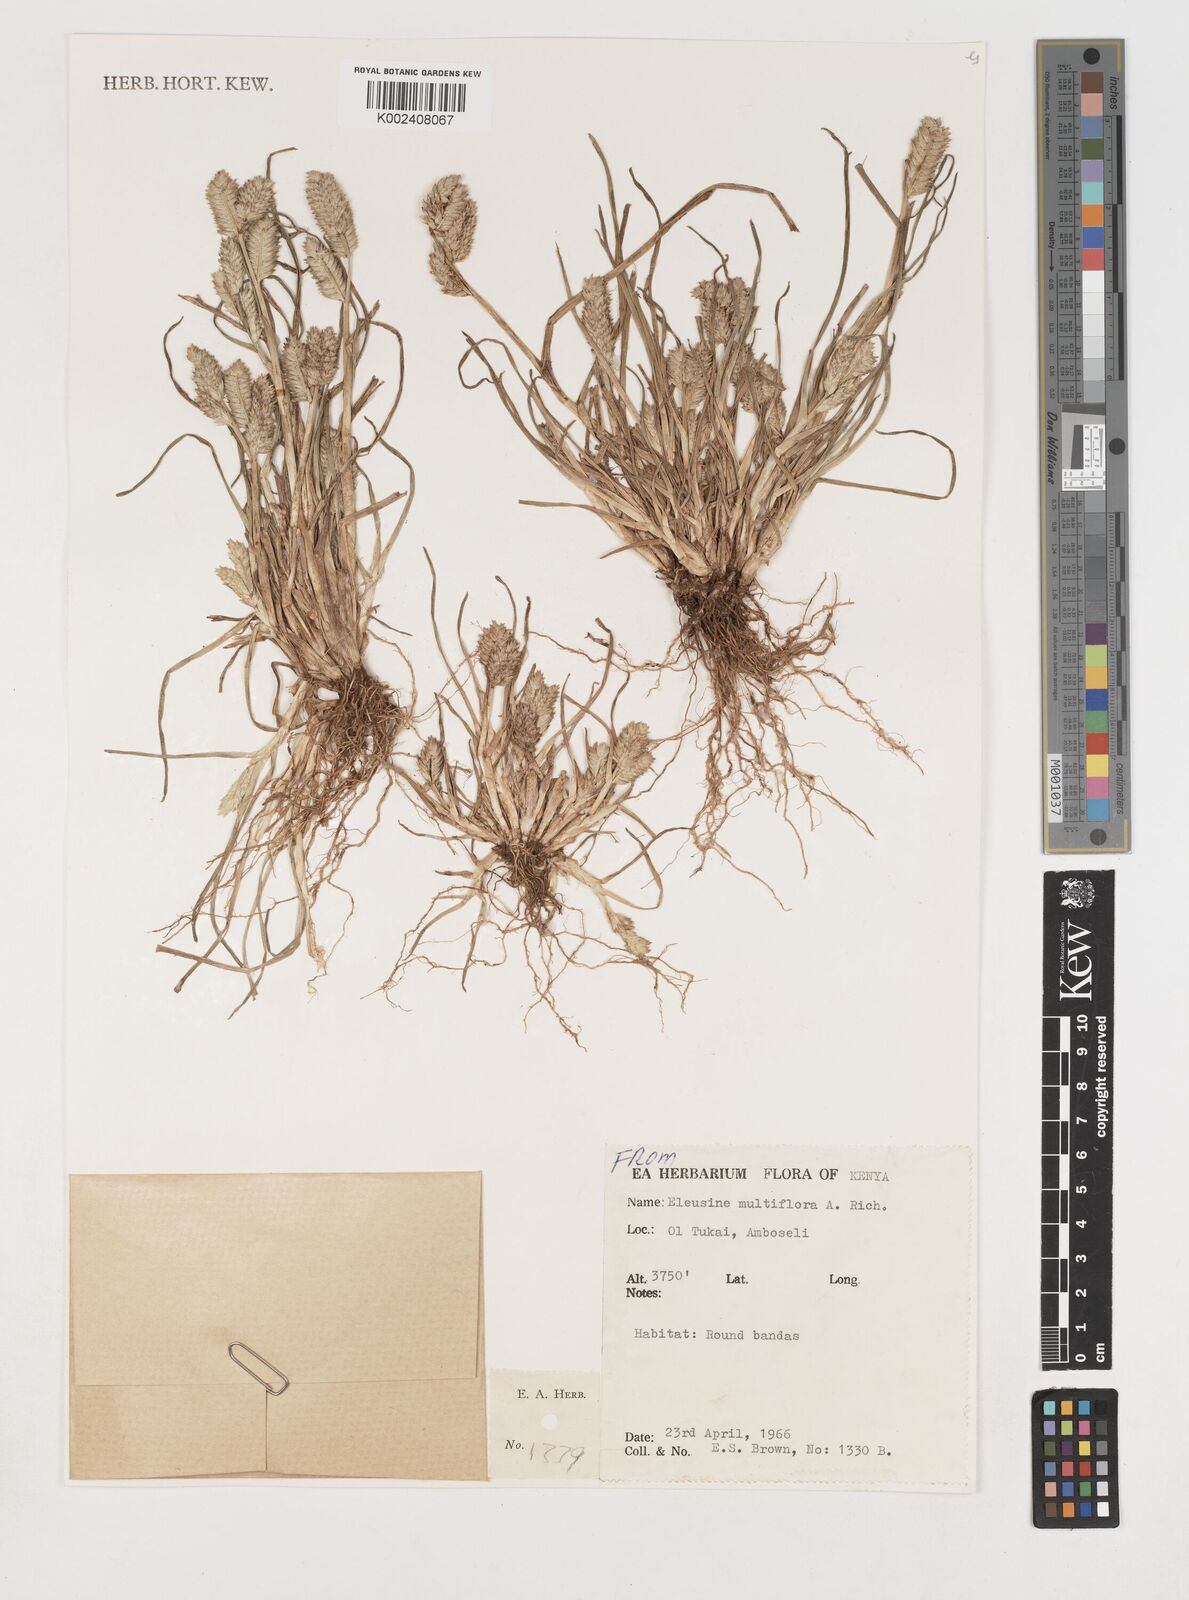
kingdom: Plantae
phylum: Tracheophyta
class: Liliopsida
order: Poales
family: Poaceae
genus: Eleusine
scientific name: Eleusine multiflora
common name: Fat-spiked yard-grass
